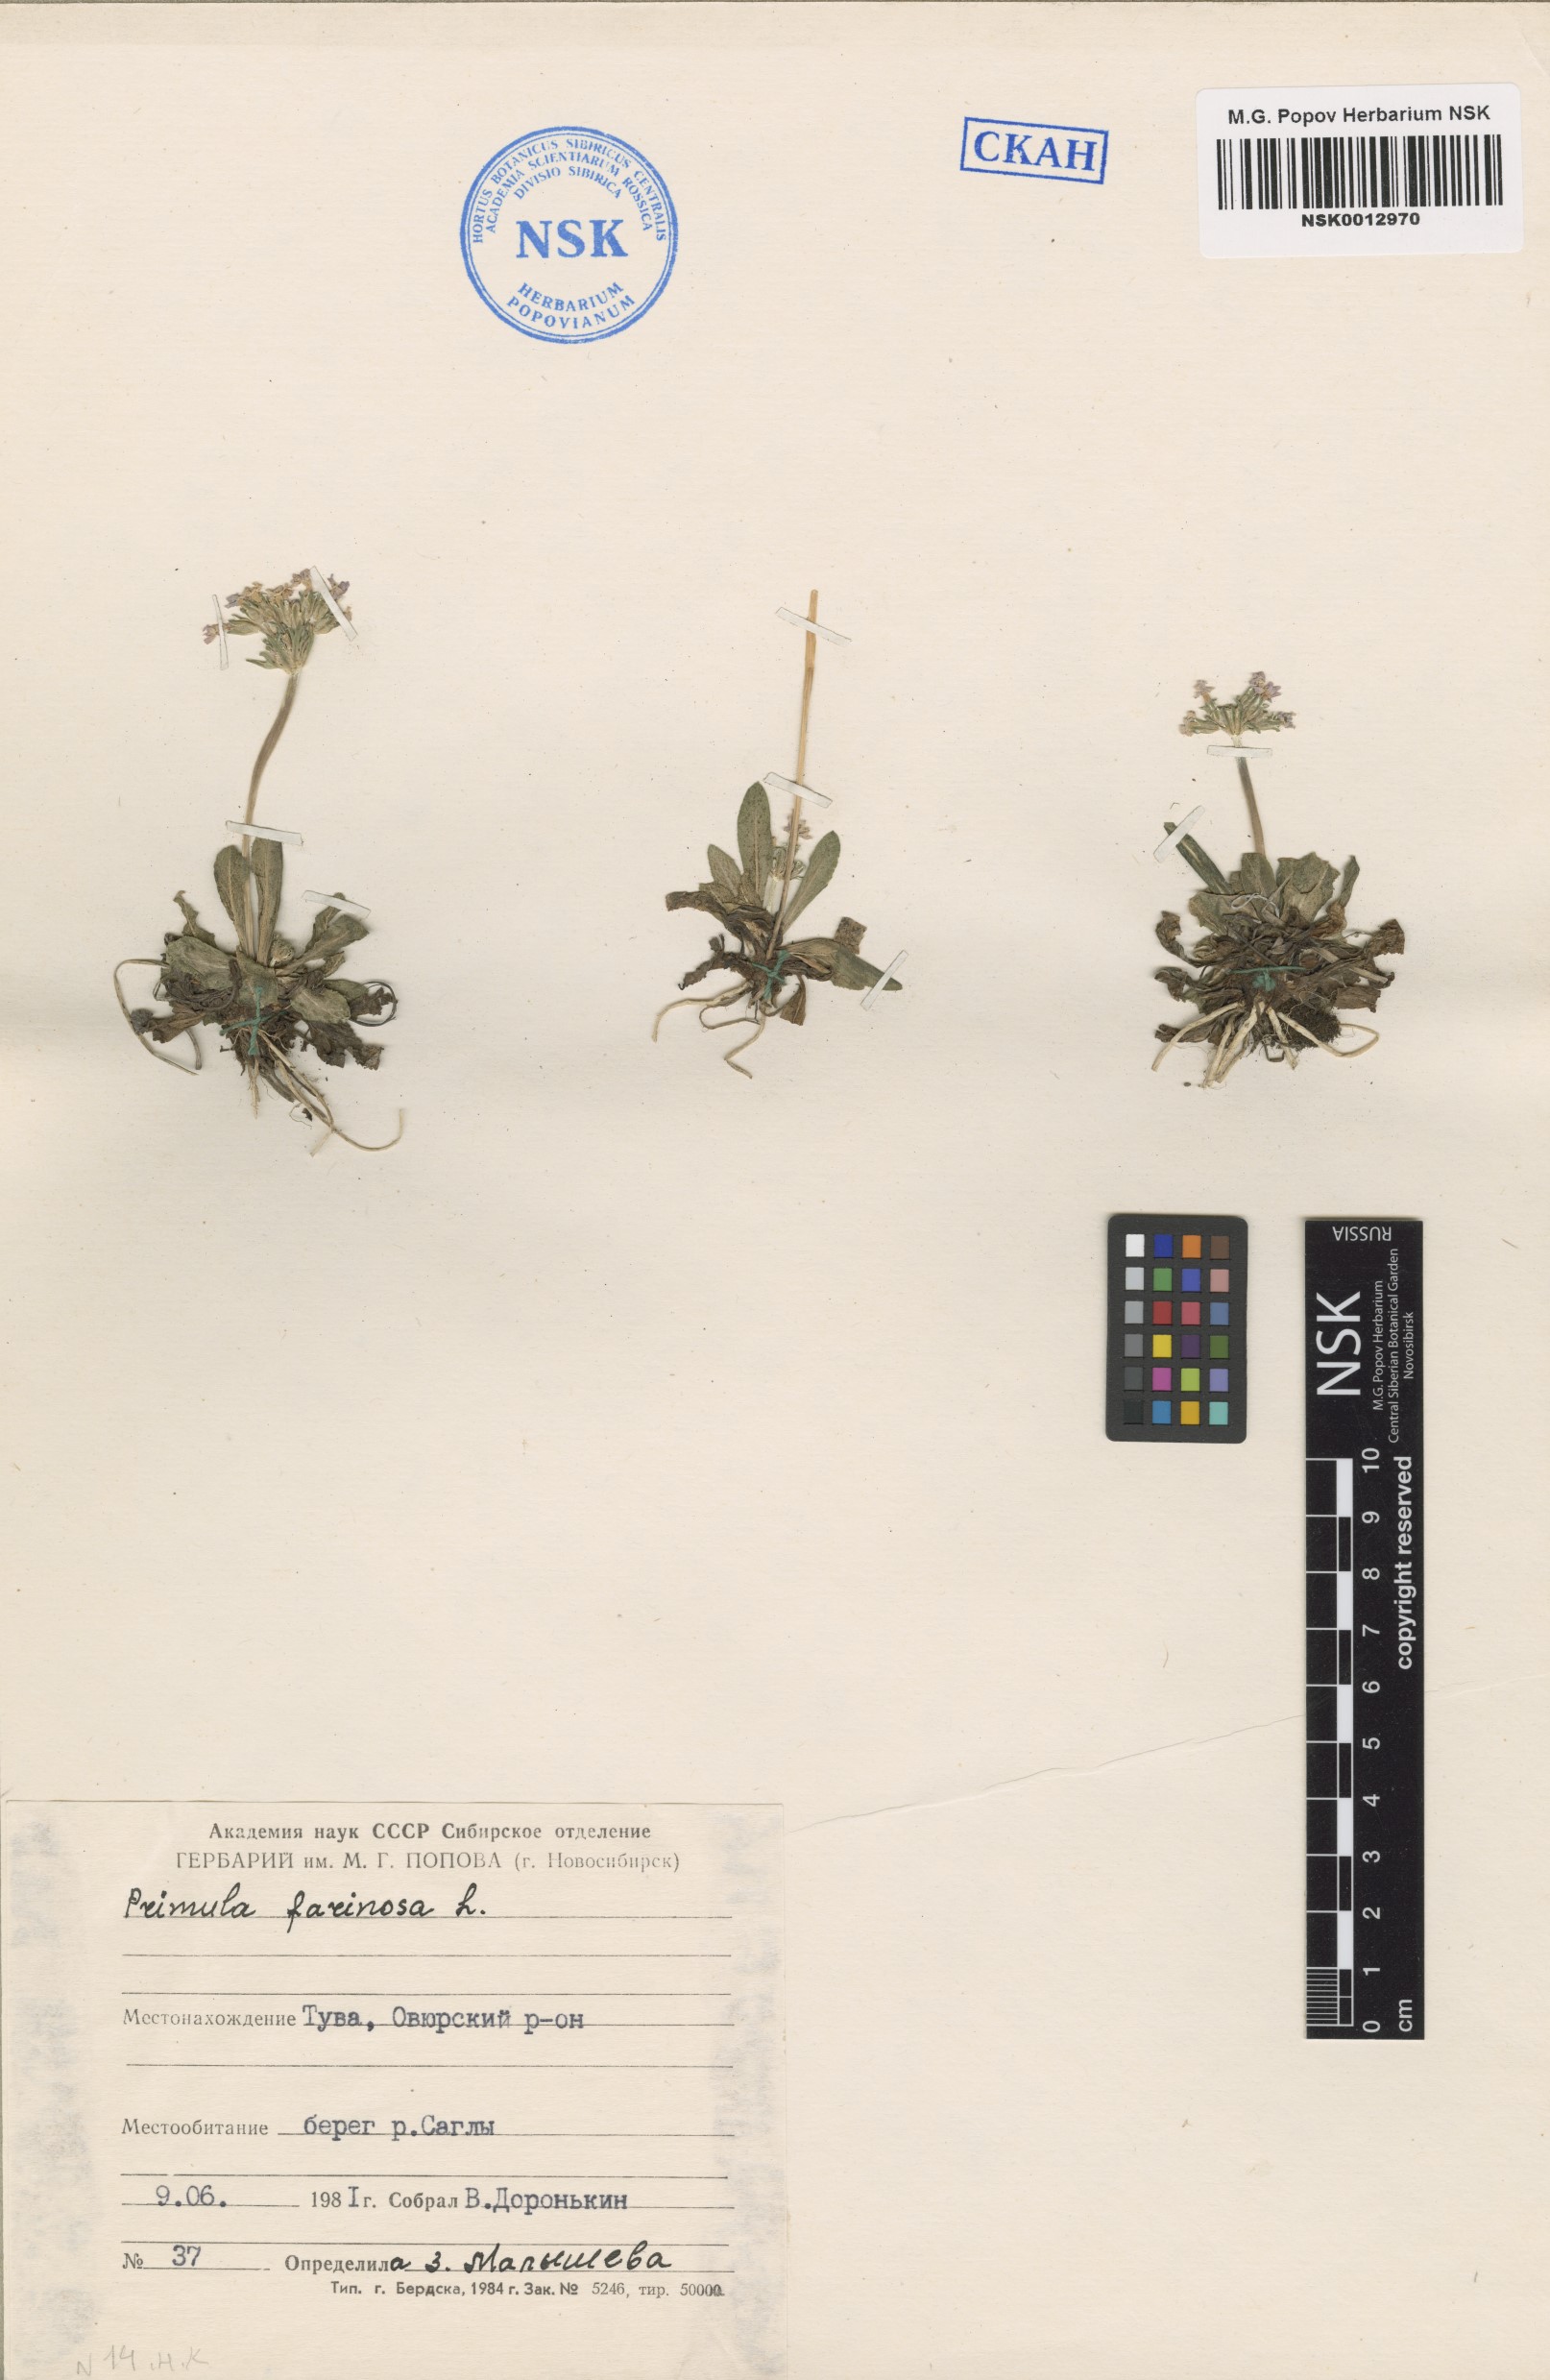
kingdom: Plantae
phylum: Tracheophyta
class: Magnoliopsida
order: Ericales
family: Primulaceae
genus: Primula
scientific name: Primula farinosa
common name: Bird's-eye primrose
